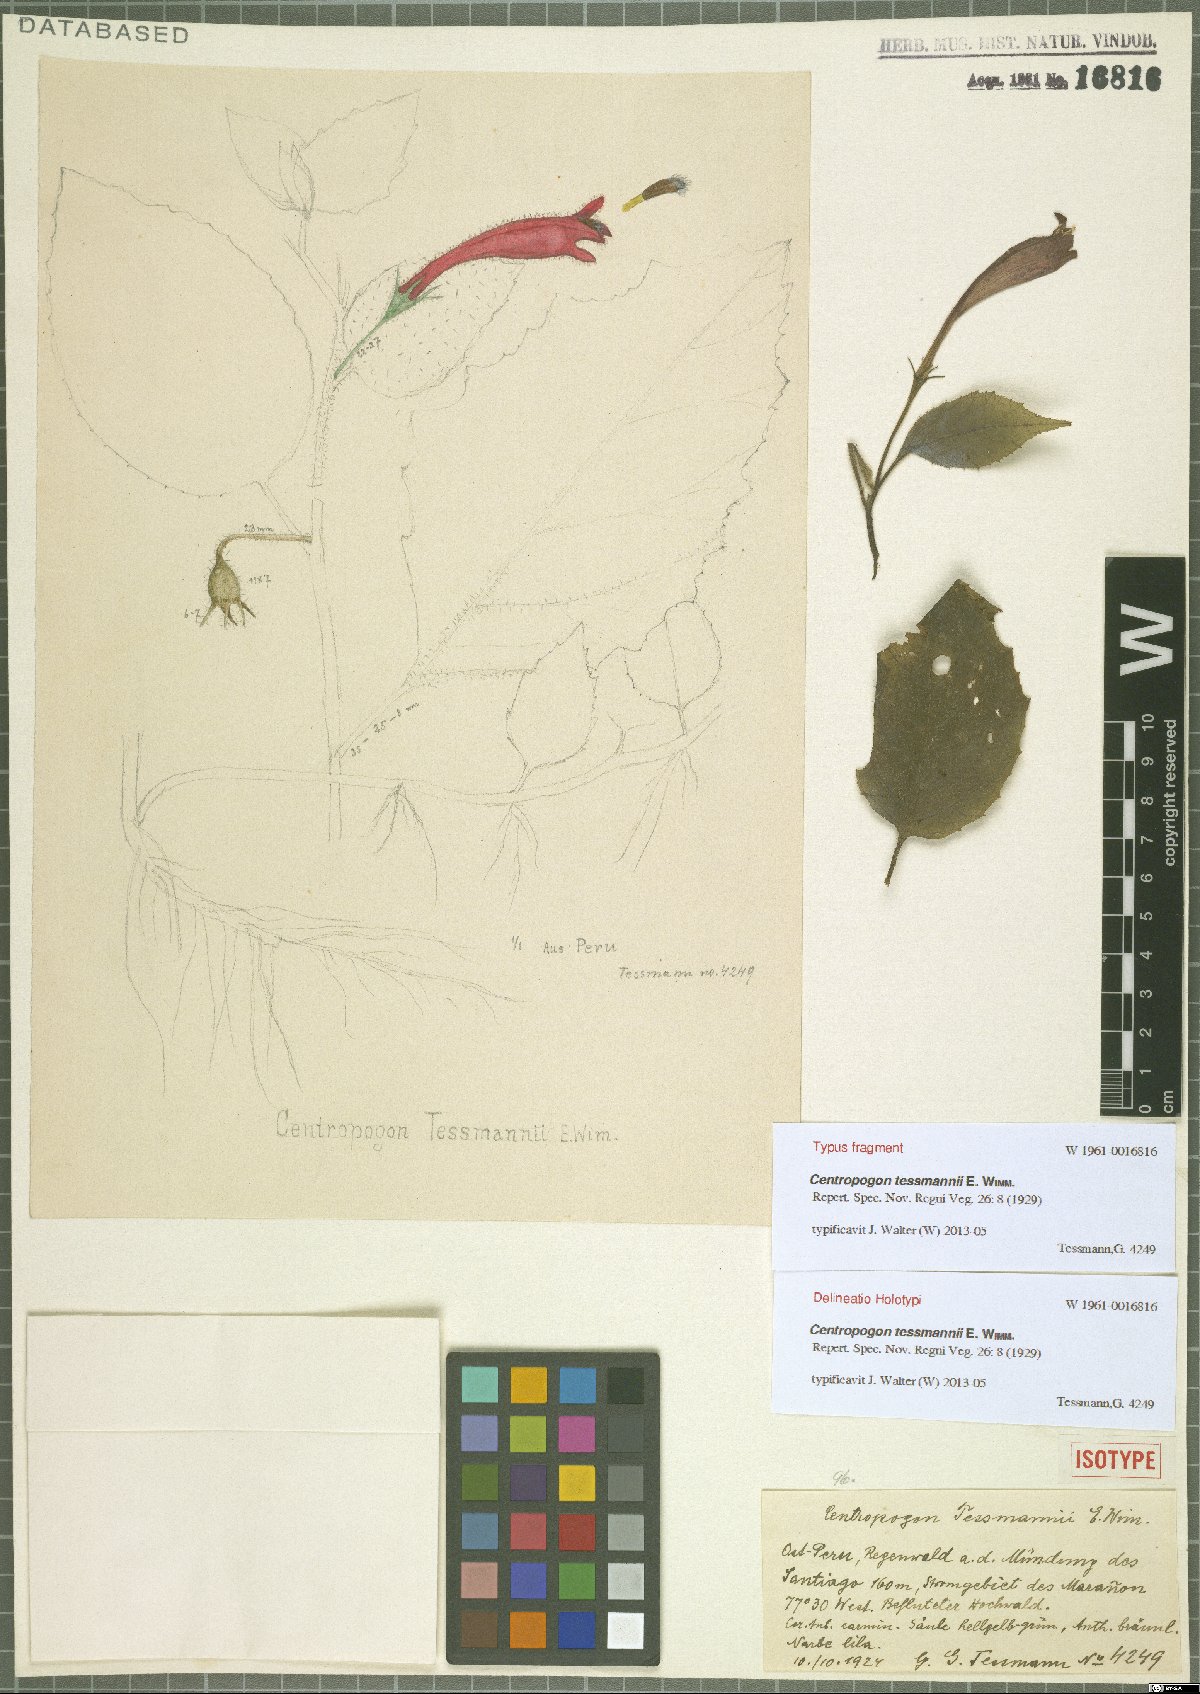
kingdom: Plantae
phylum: Tracheophyta
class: Magnoliopsida
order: Asterales
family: Campanulaceae
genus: Centropogon
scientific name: Centropogon tessmannii
